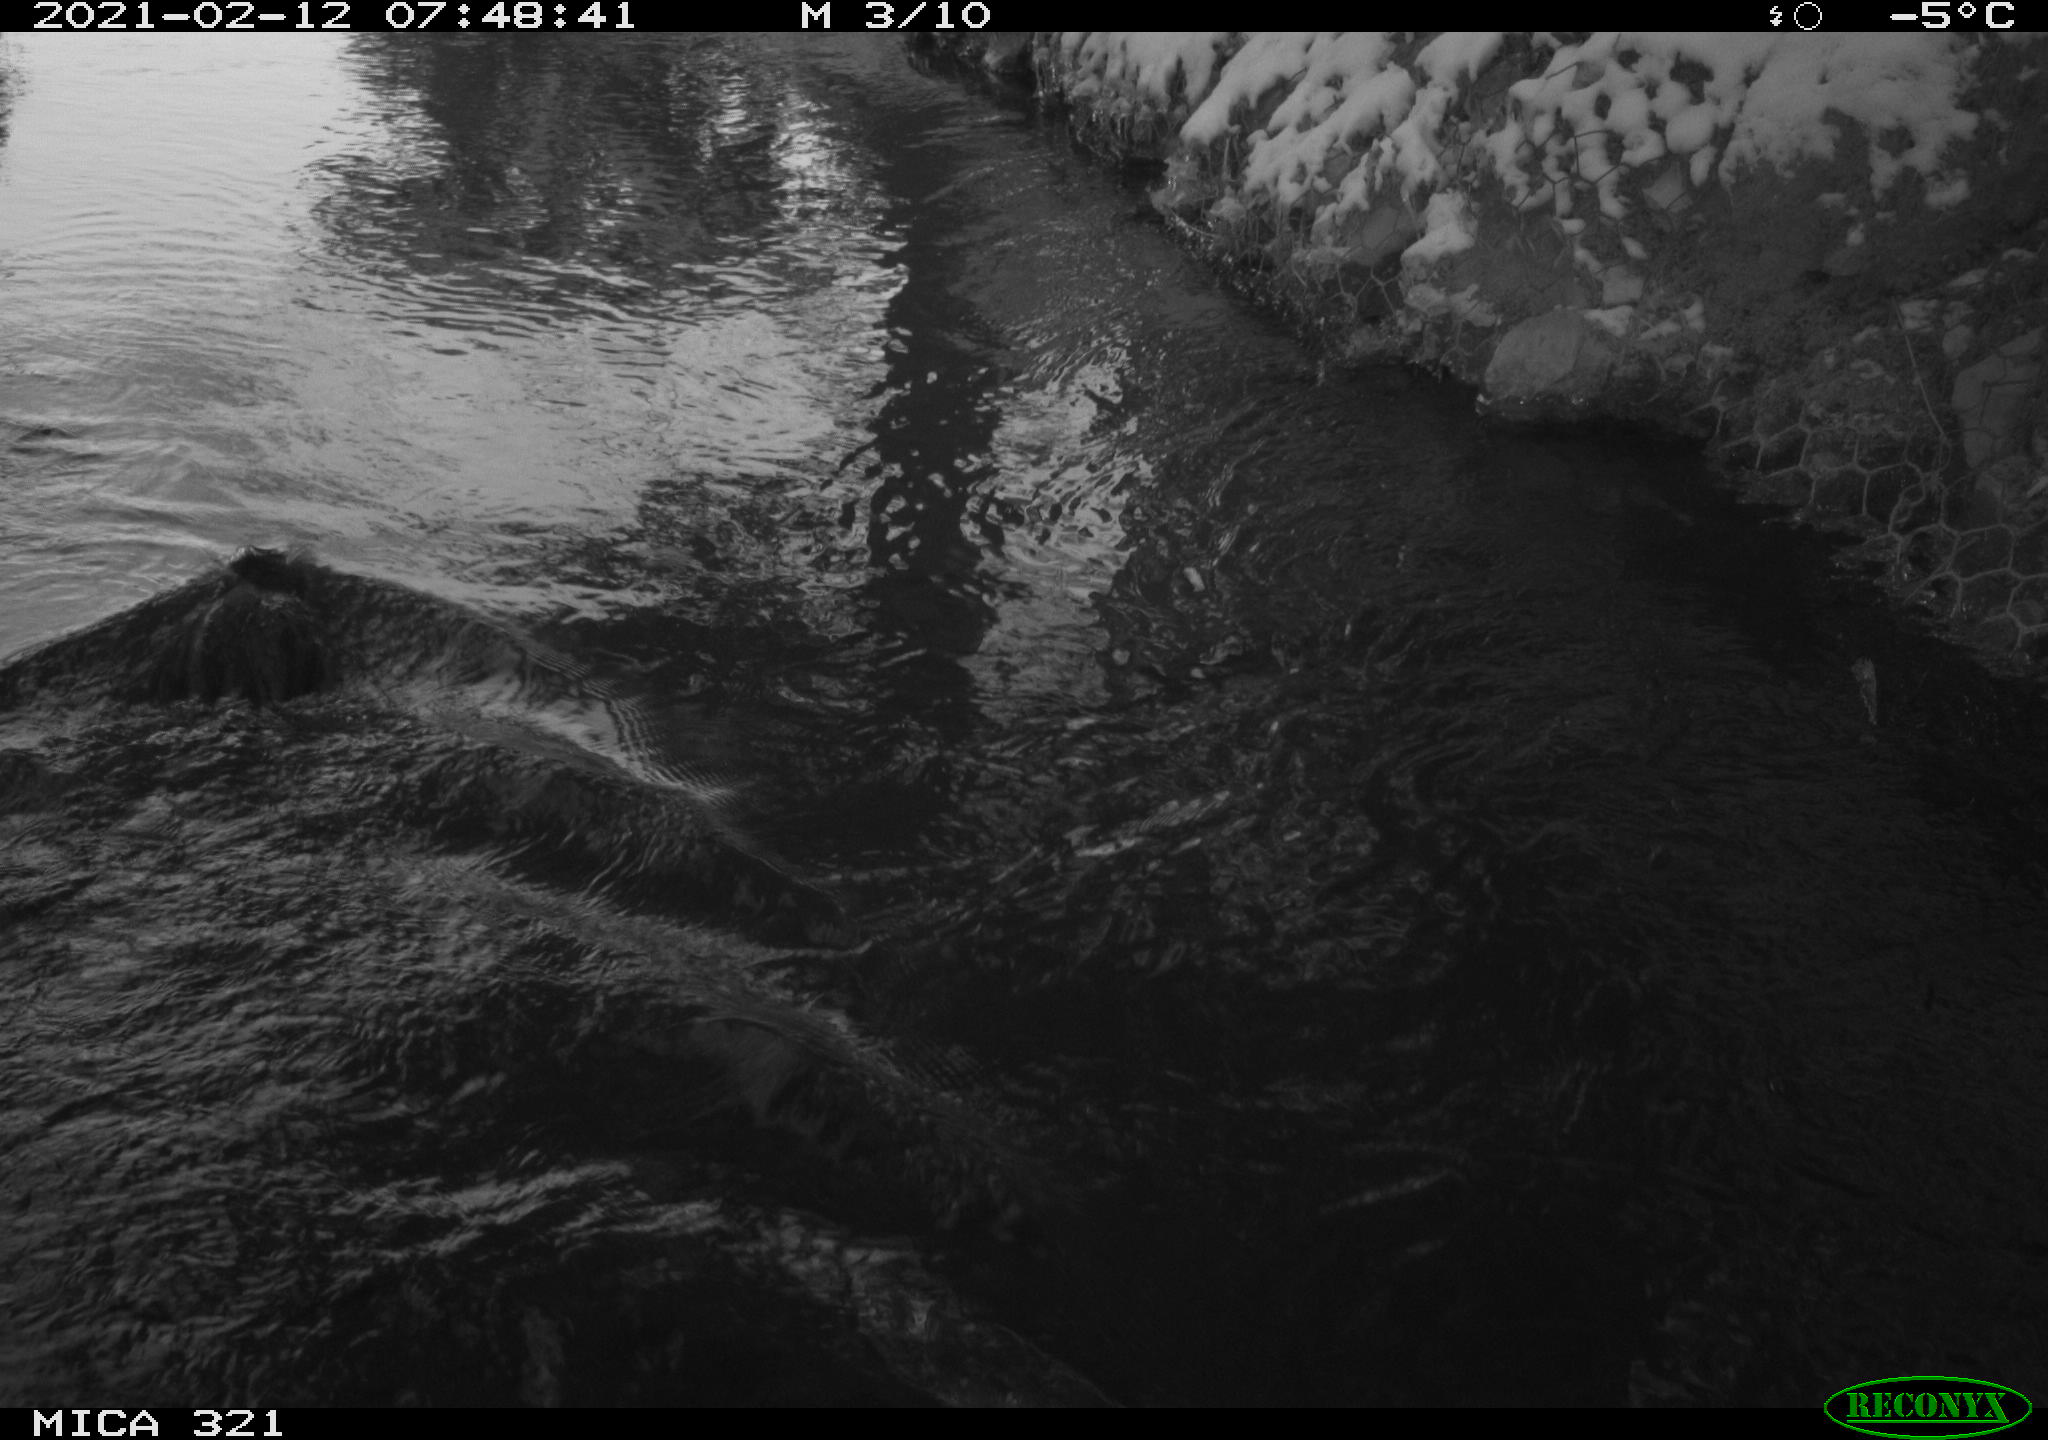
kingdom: Animalia
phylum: Chordata
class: Aves
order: Suliformes
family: Phalacrocoracidae
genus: Phalacrocorax
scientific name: Phalacrocorax carbo
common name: Great cormorant
